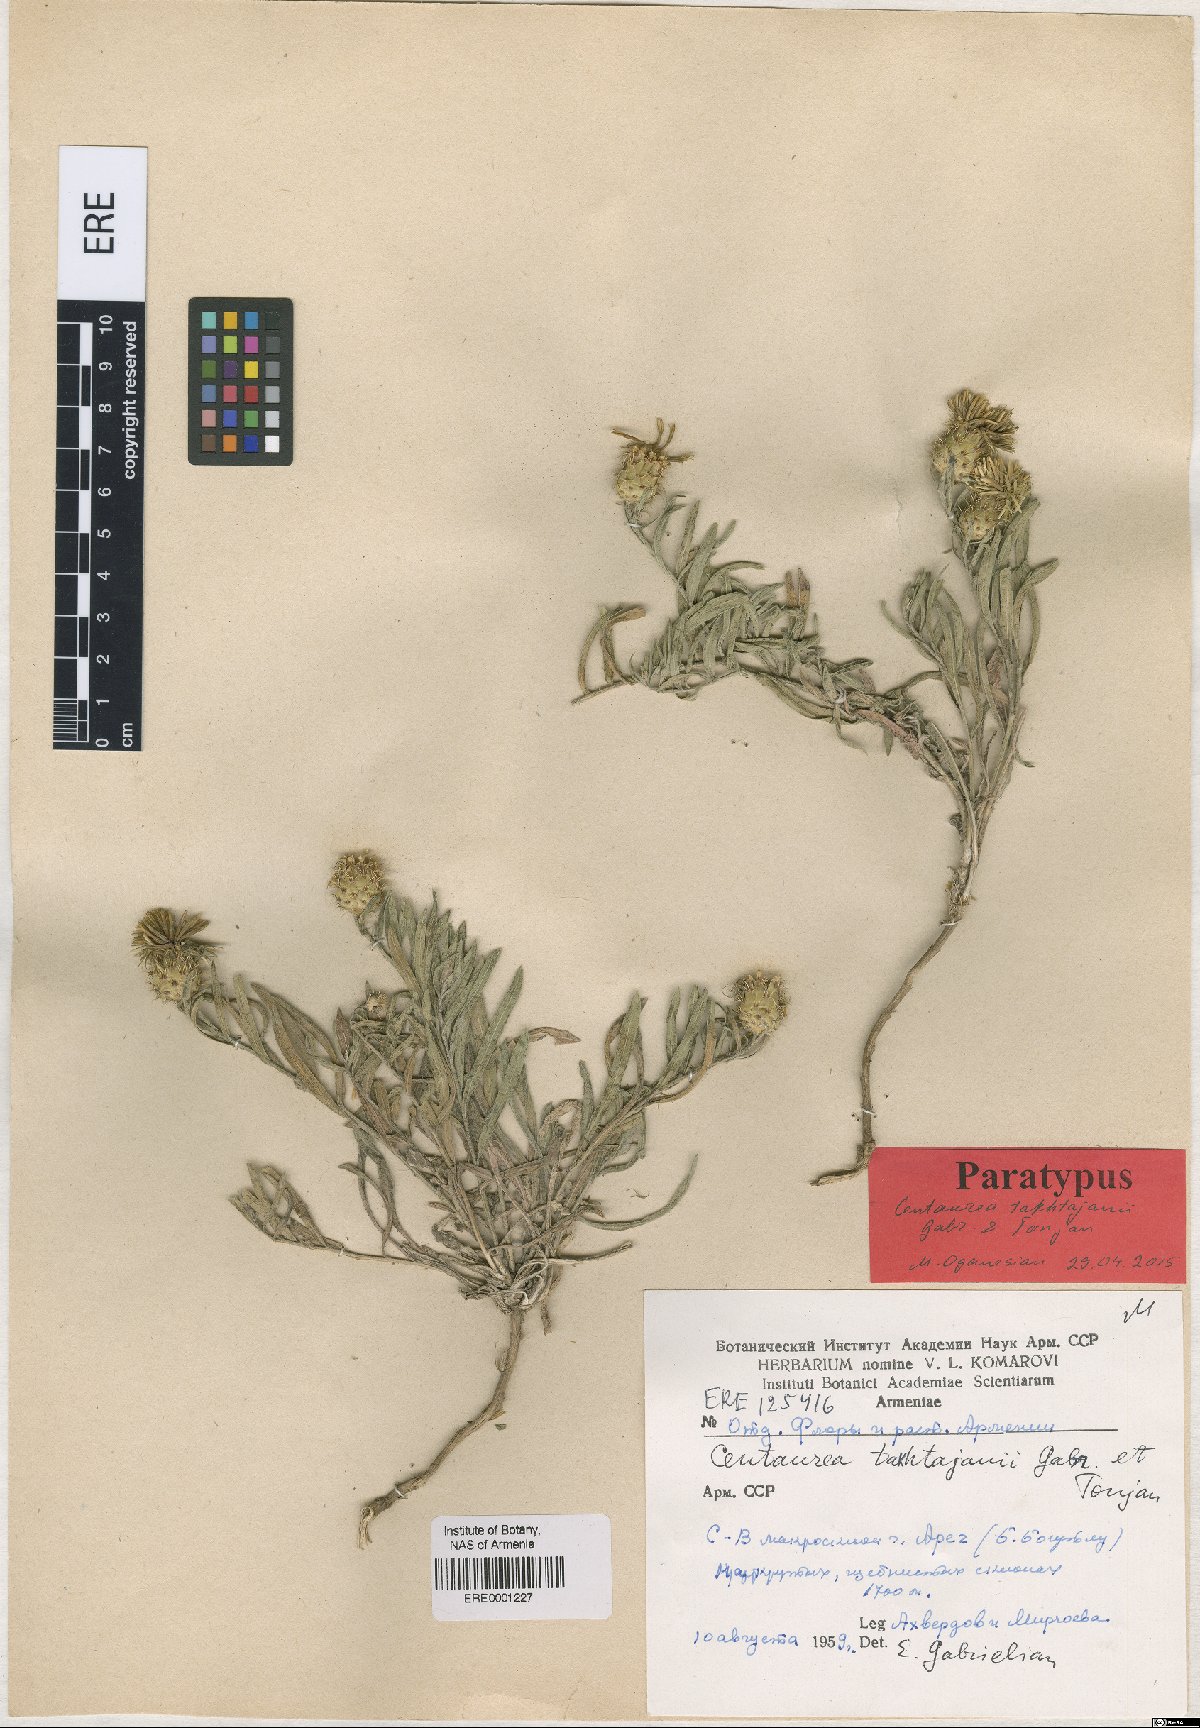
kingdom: Plantae
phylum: Tracheophyta
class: Magnoliopsida
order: Asterales
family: Asteraceae
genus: Centaurea
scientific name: Centaurea takhtajanii
